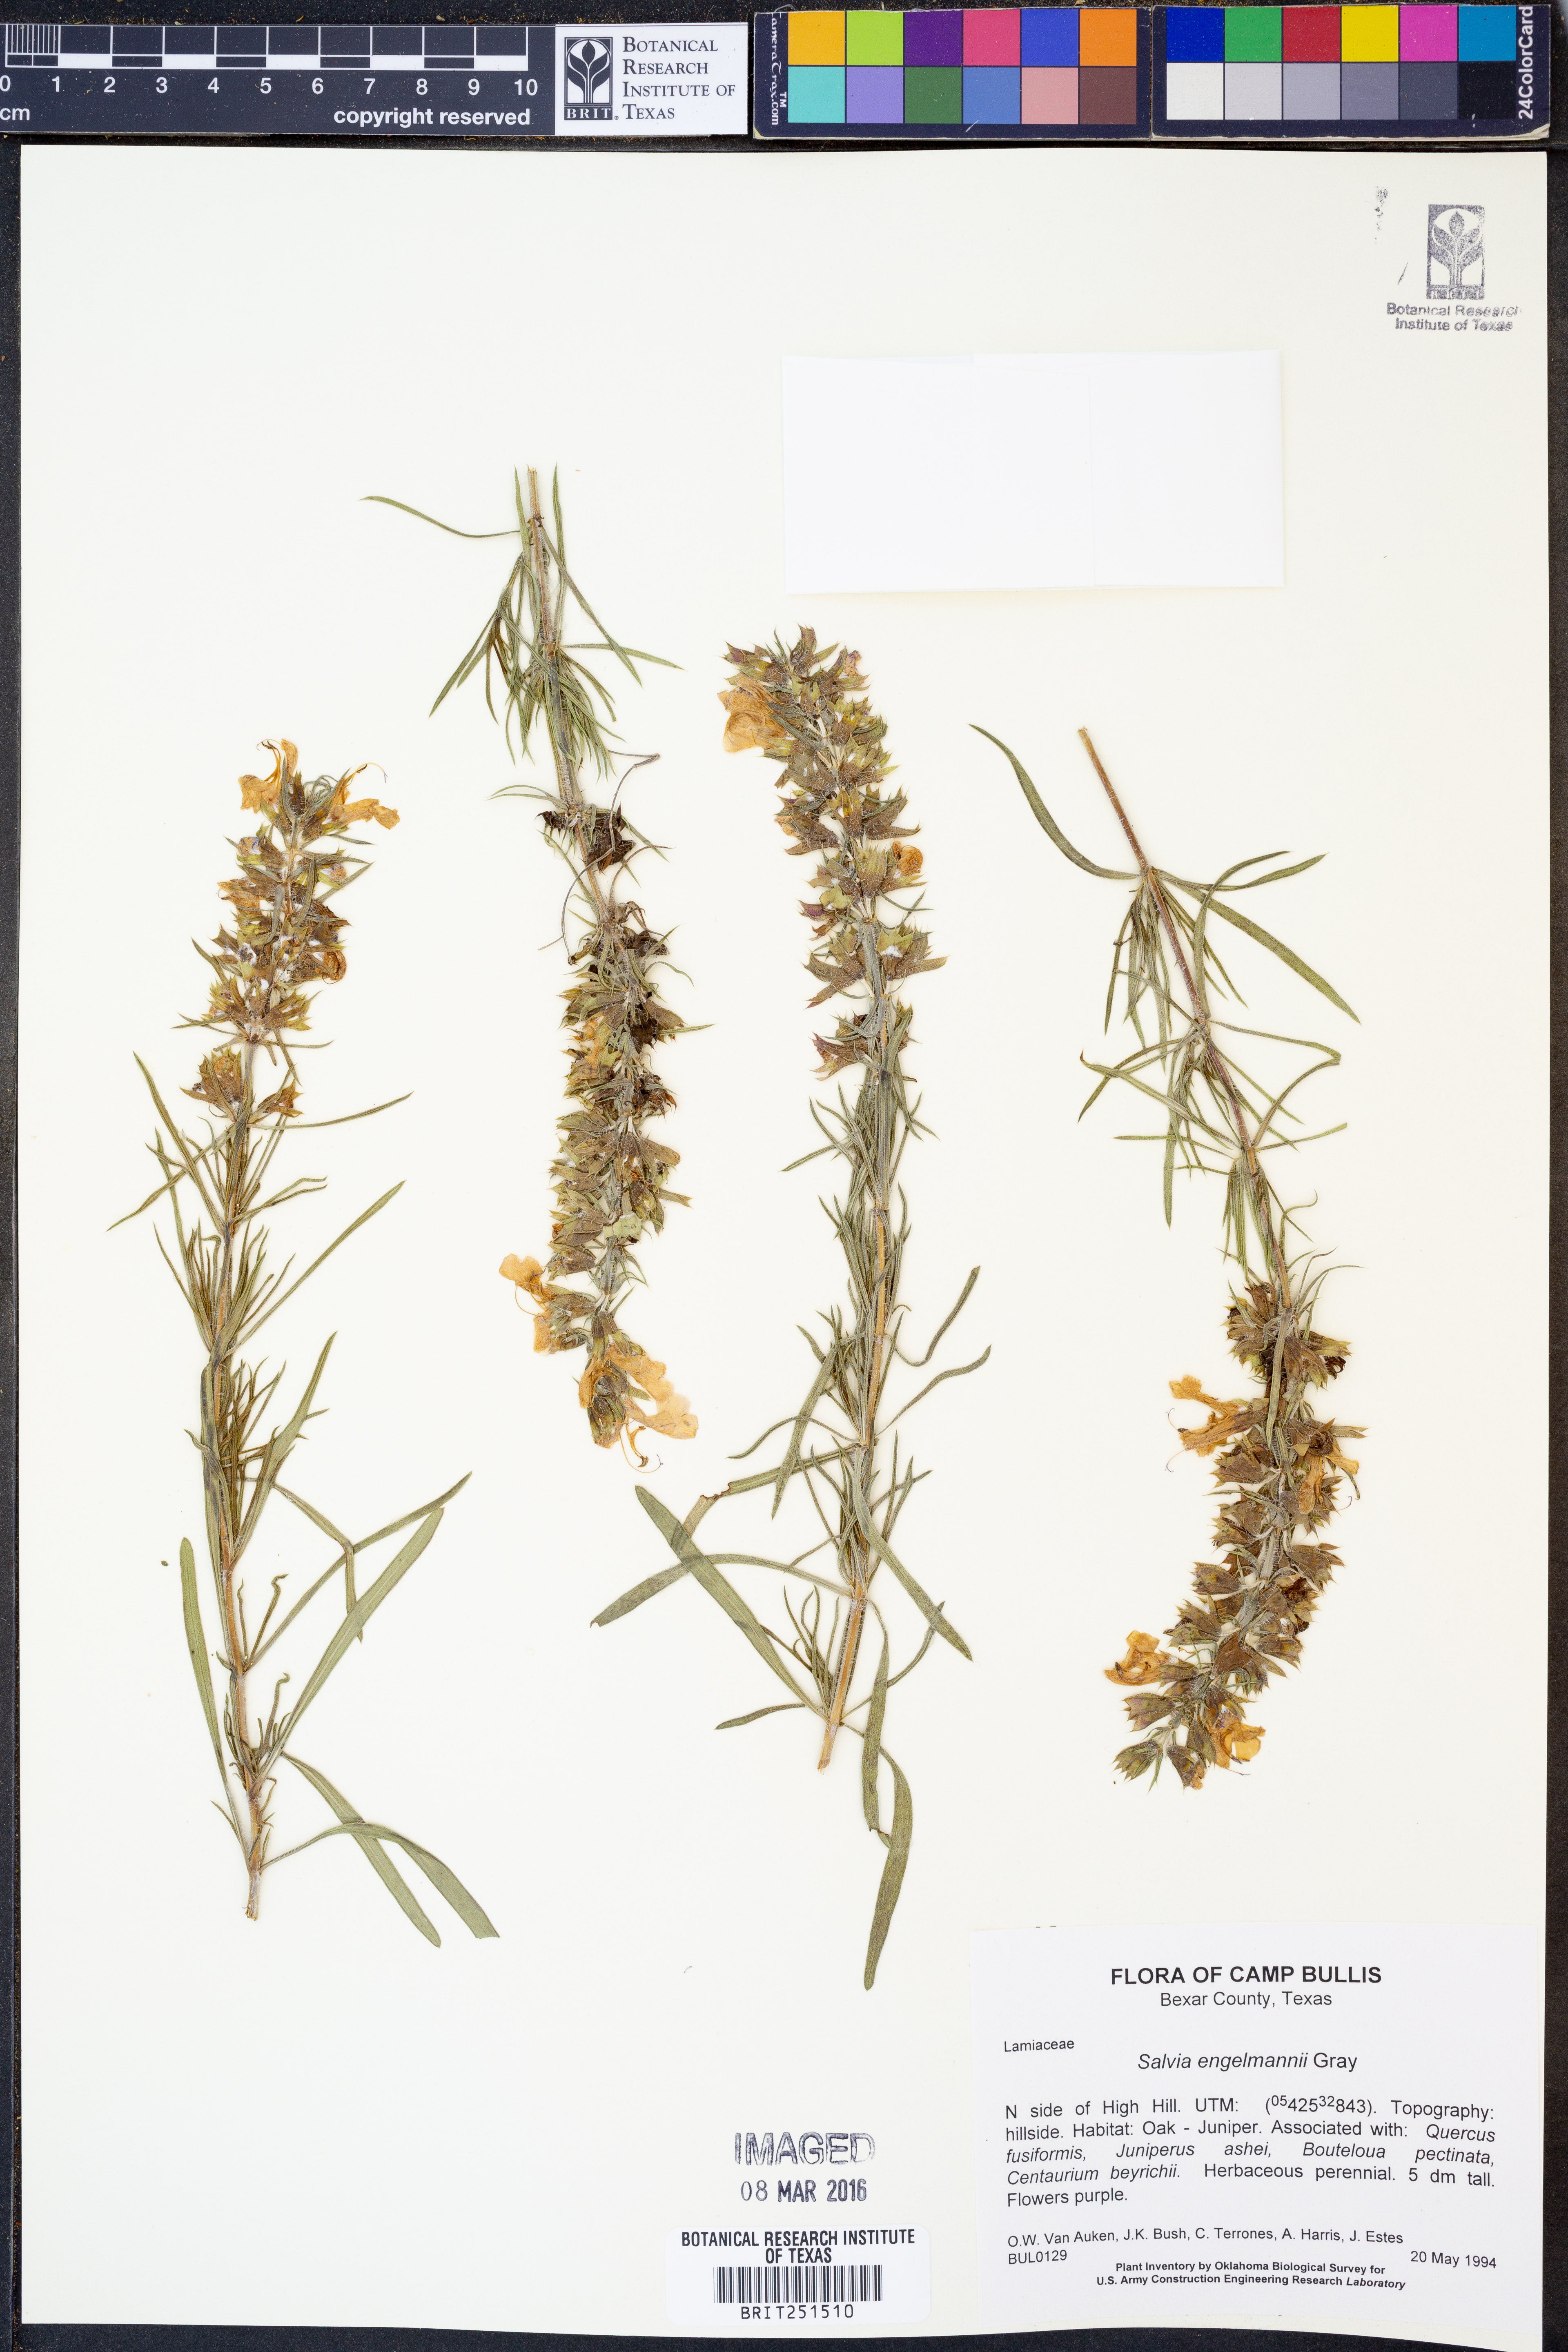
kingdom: Plantae
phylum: Tracheophyta
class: Magnoliopsida
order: Lamiales
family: Lamiaceae
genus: Salvia
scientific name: Salvia engelmannii
